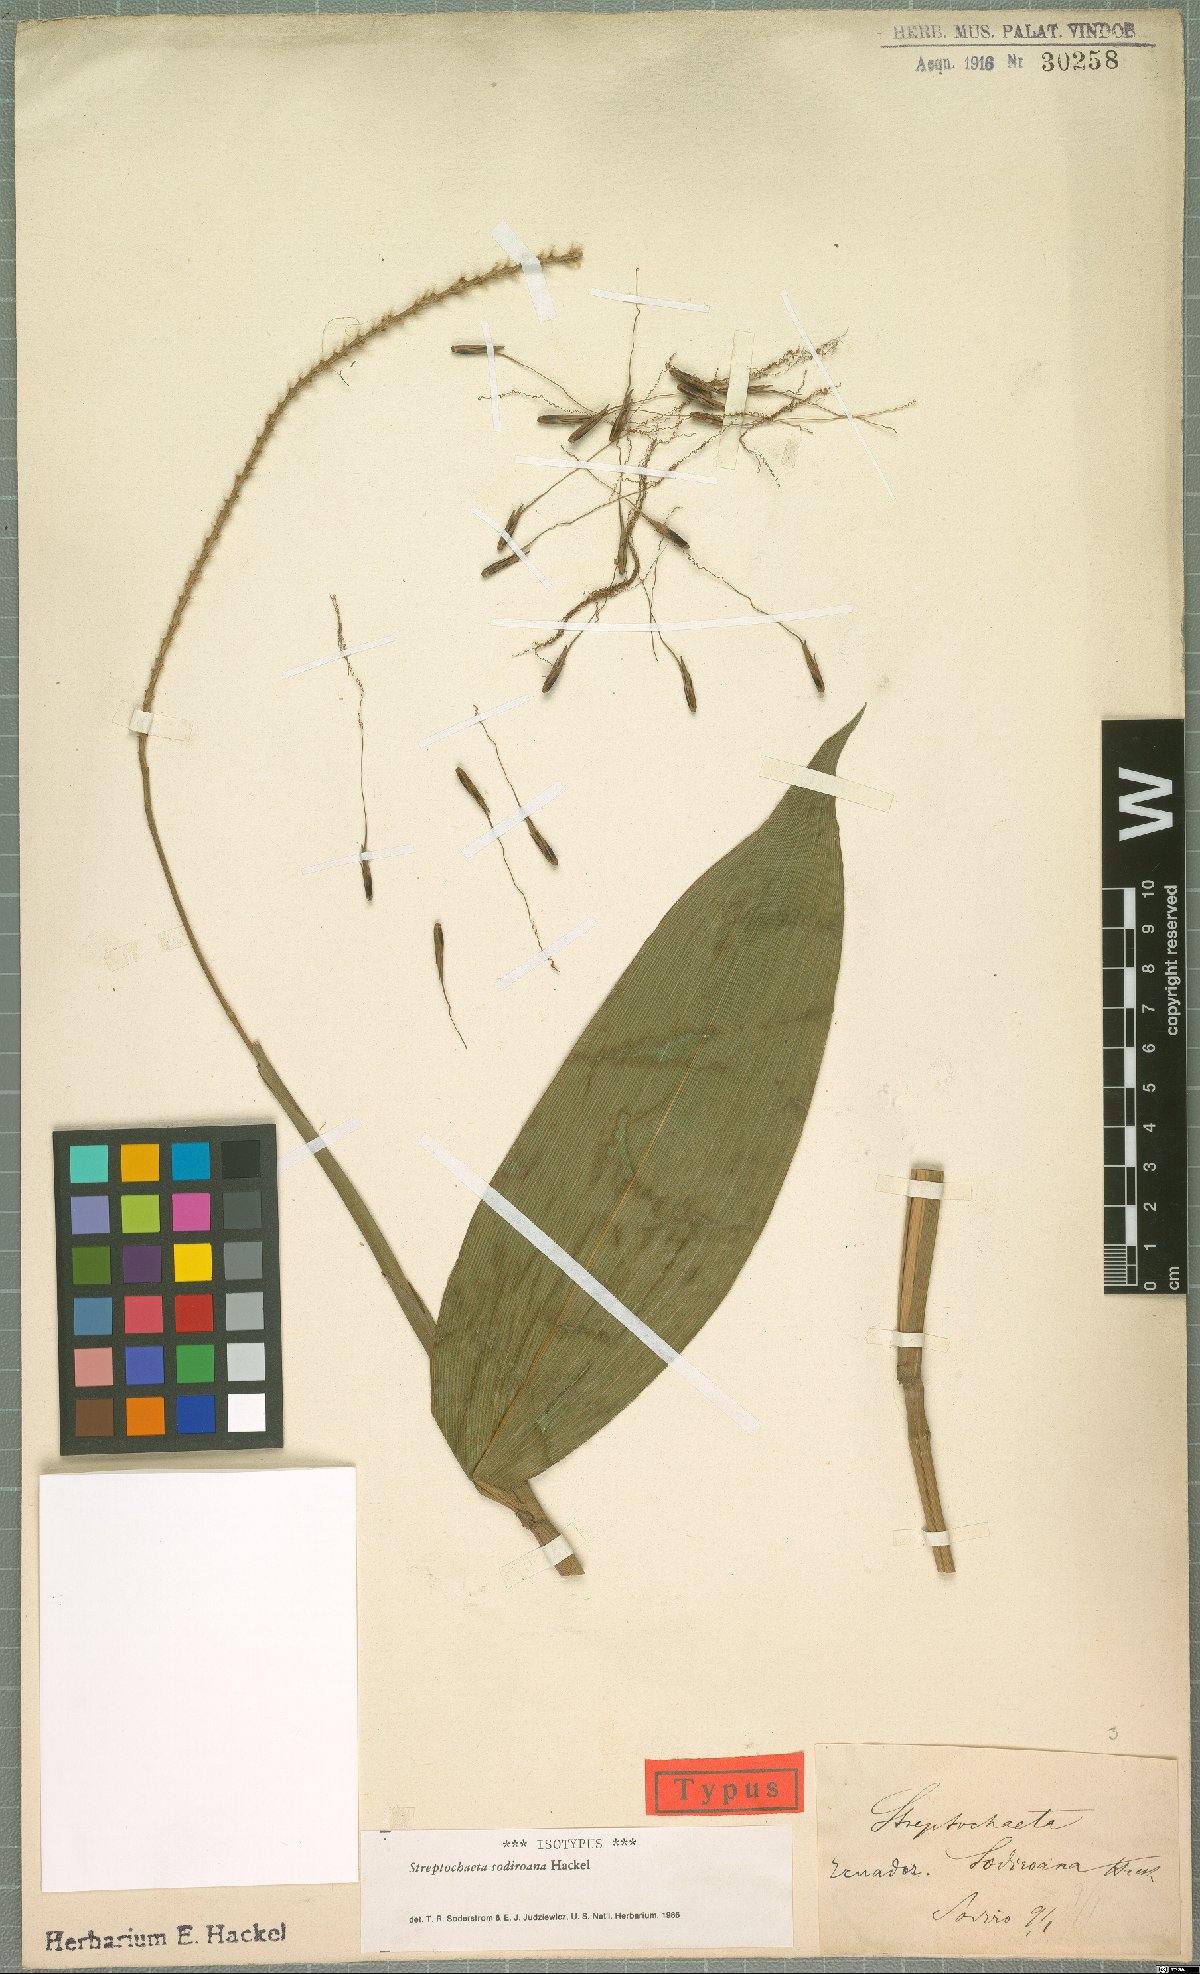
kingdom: Plantae
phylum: Tracheophyta
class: Liliopsida
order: Poales
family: Poaceae
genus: Streptochaeta
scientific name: Streptochaeta sodiroana
